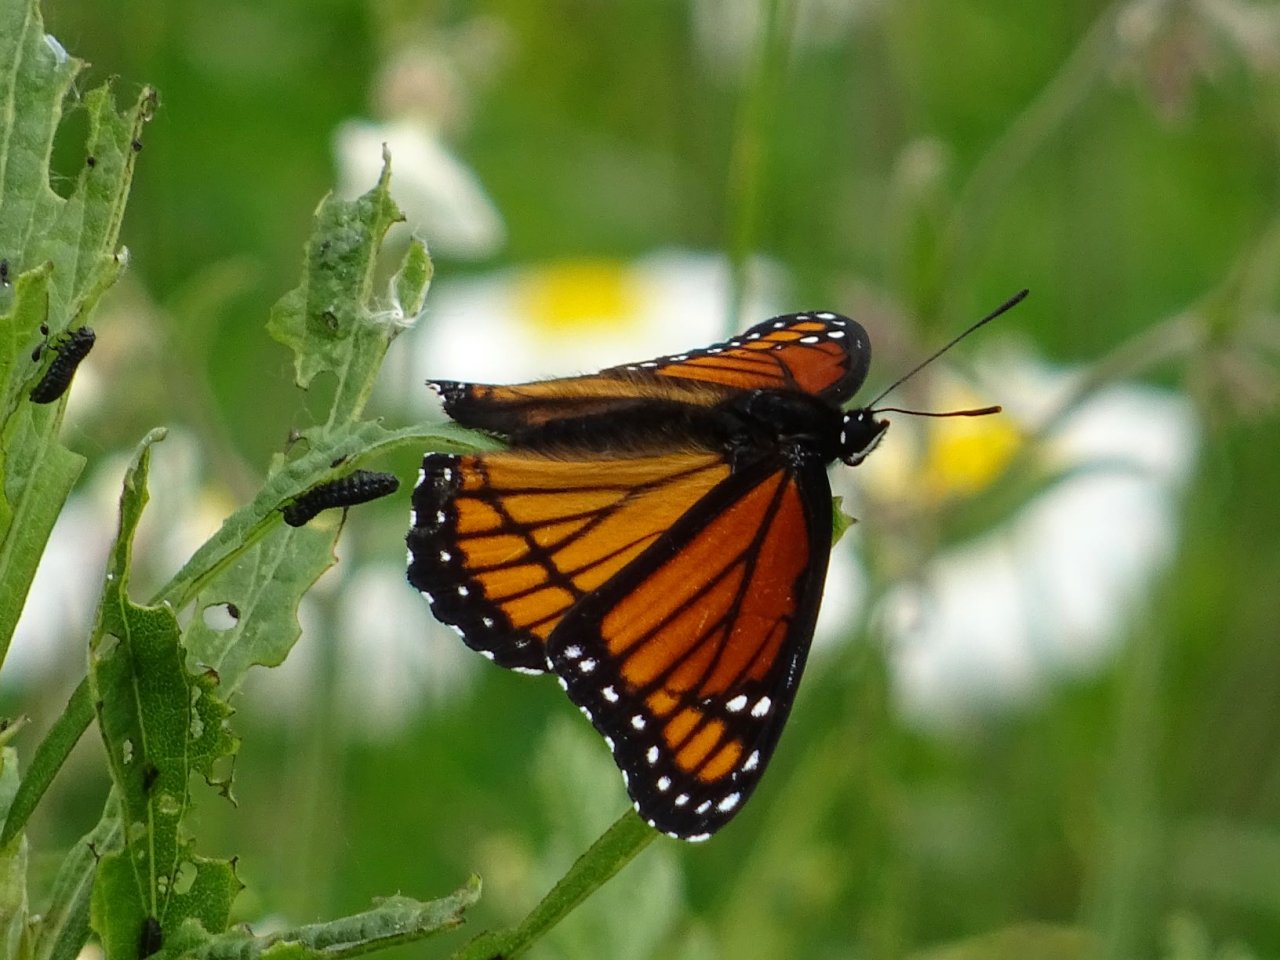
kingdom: Animalia
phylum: Arthropoda
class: Insecta
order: Lepidoptera
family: Nymphalidae
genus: Limenitis
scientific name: Limenitis archippus
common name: Viceroy
